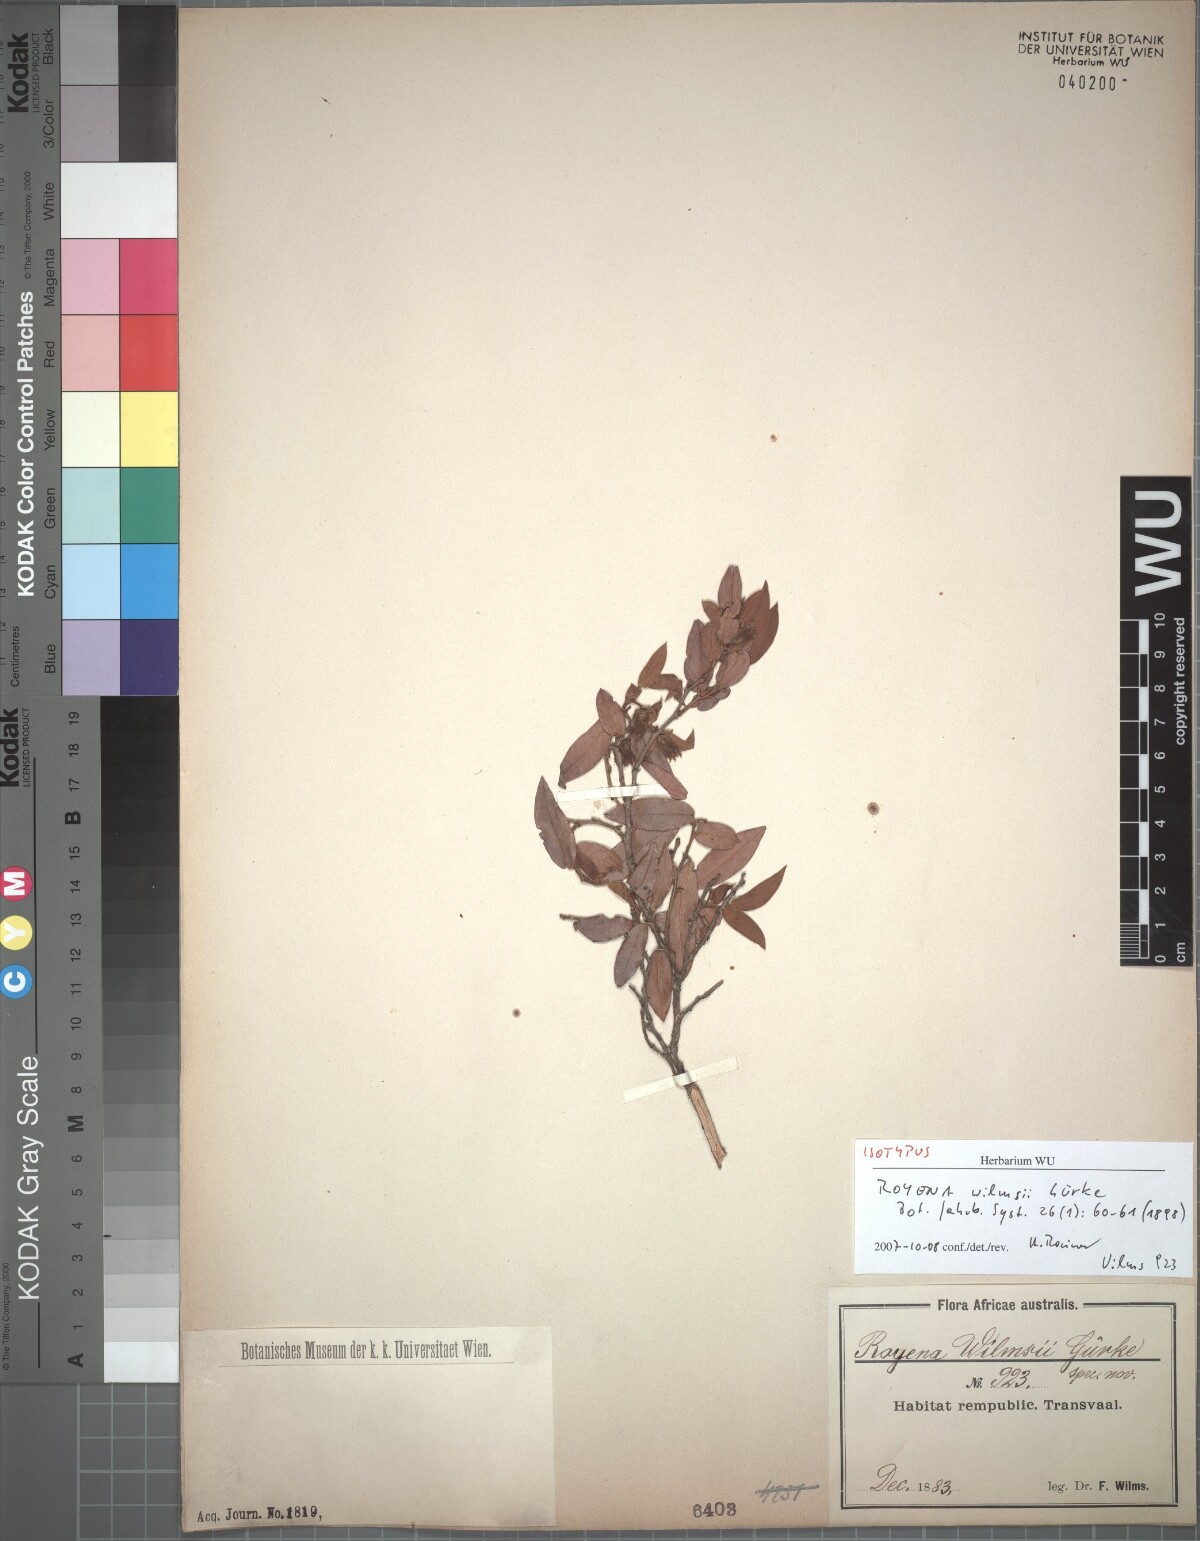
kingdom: Plantae
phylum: Tracheophyta
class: Magnoliopsida
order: Ericales
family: Ebenaceae
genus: Diospyros
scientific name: Diospyros whyteana
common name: Bladder-nut
